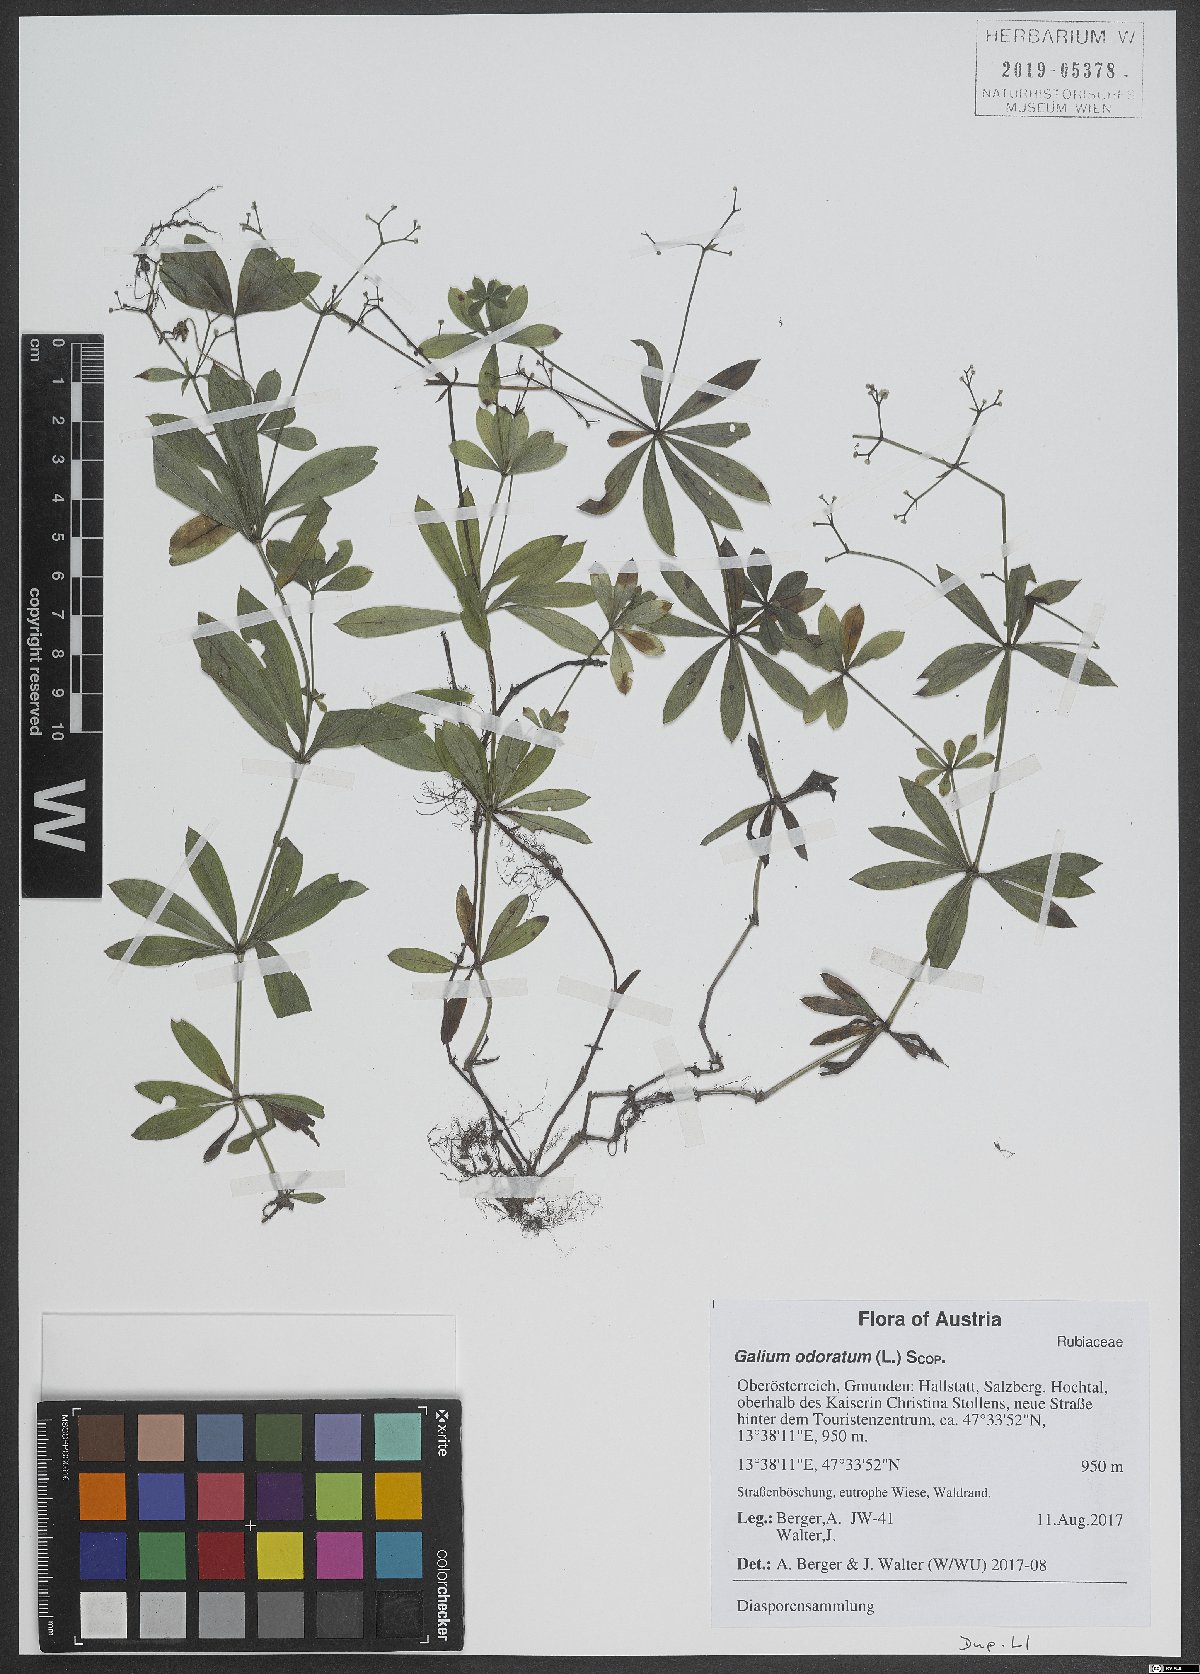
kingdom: Plantae
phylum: Tracheophyta
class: Magnoliopsida
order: Gentianales
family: Rubiaceae
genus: Galium
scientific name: Galium odoratum
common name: Sweet woodruff
